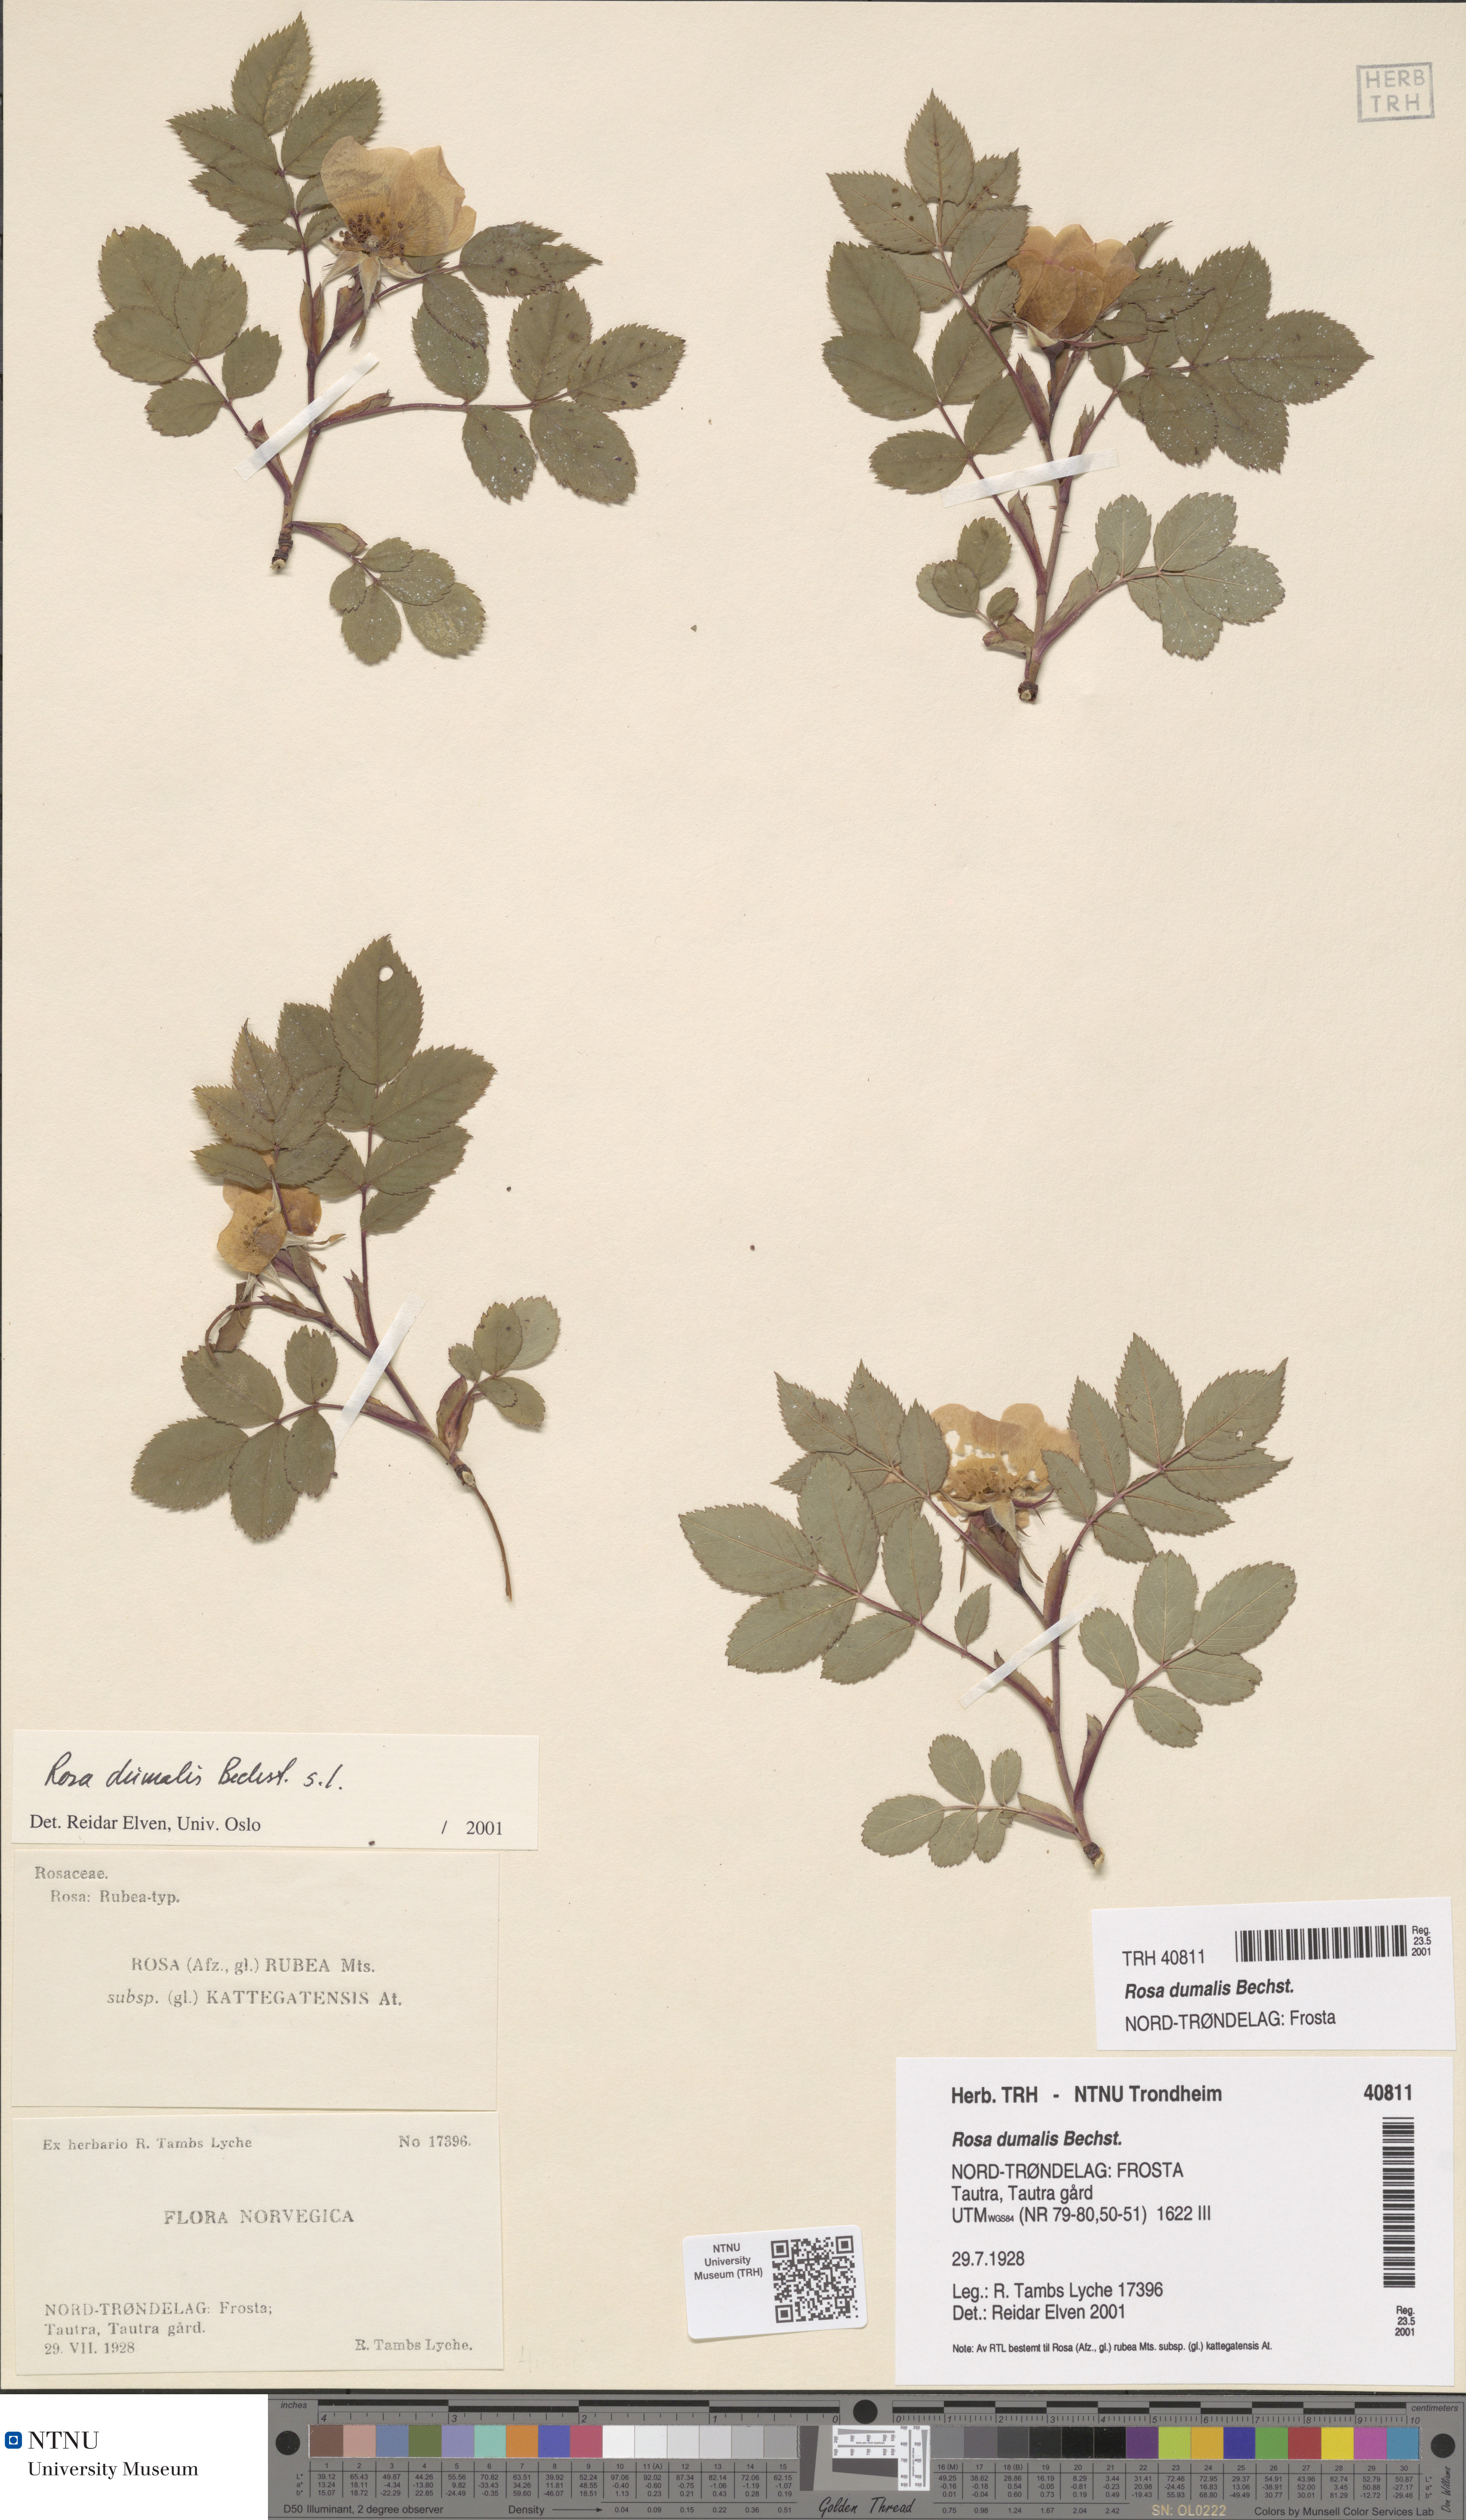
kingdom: Plantae
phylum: Tracheophyta
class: Magnoliopsida
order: Rosales
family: Rosaceae
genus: Rosa
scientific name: Rosa dumalis
